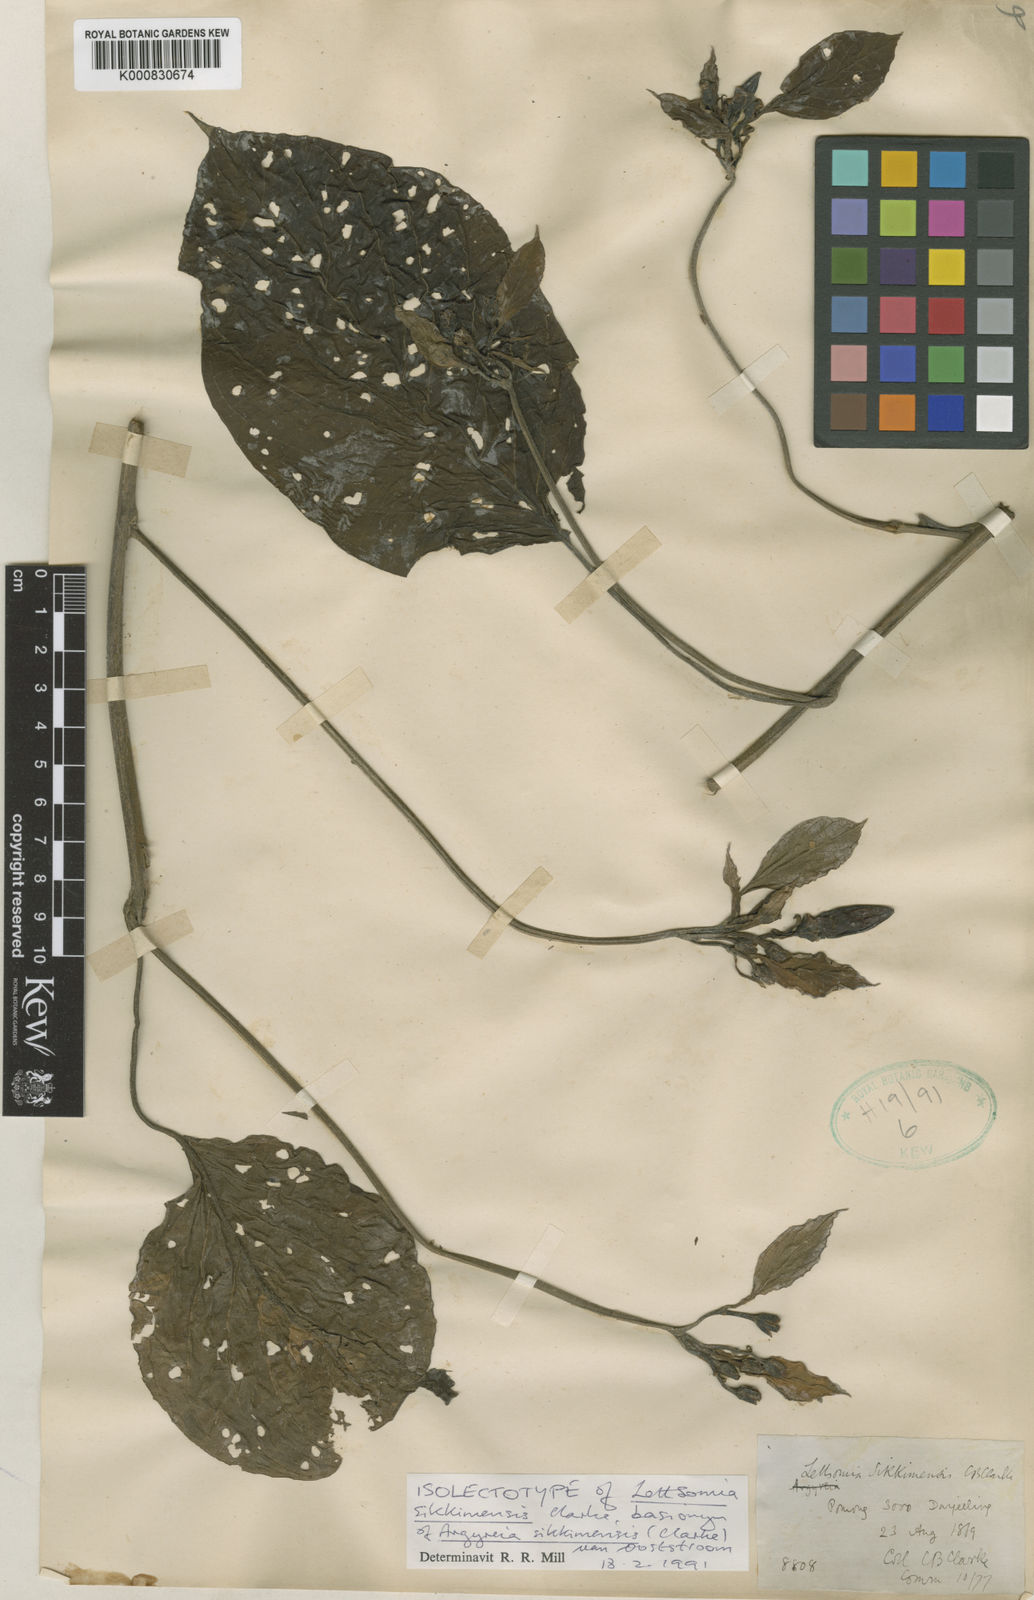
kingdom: Plantae
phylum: Tracheophyta
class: Magnoliopsida
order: Solanales
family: Convolvulaceae
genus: Argyreia
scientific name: Argyreia sikkimensis
